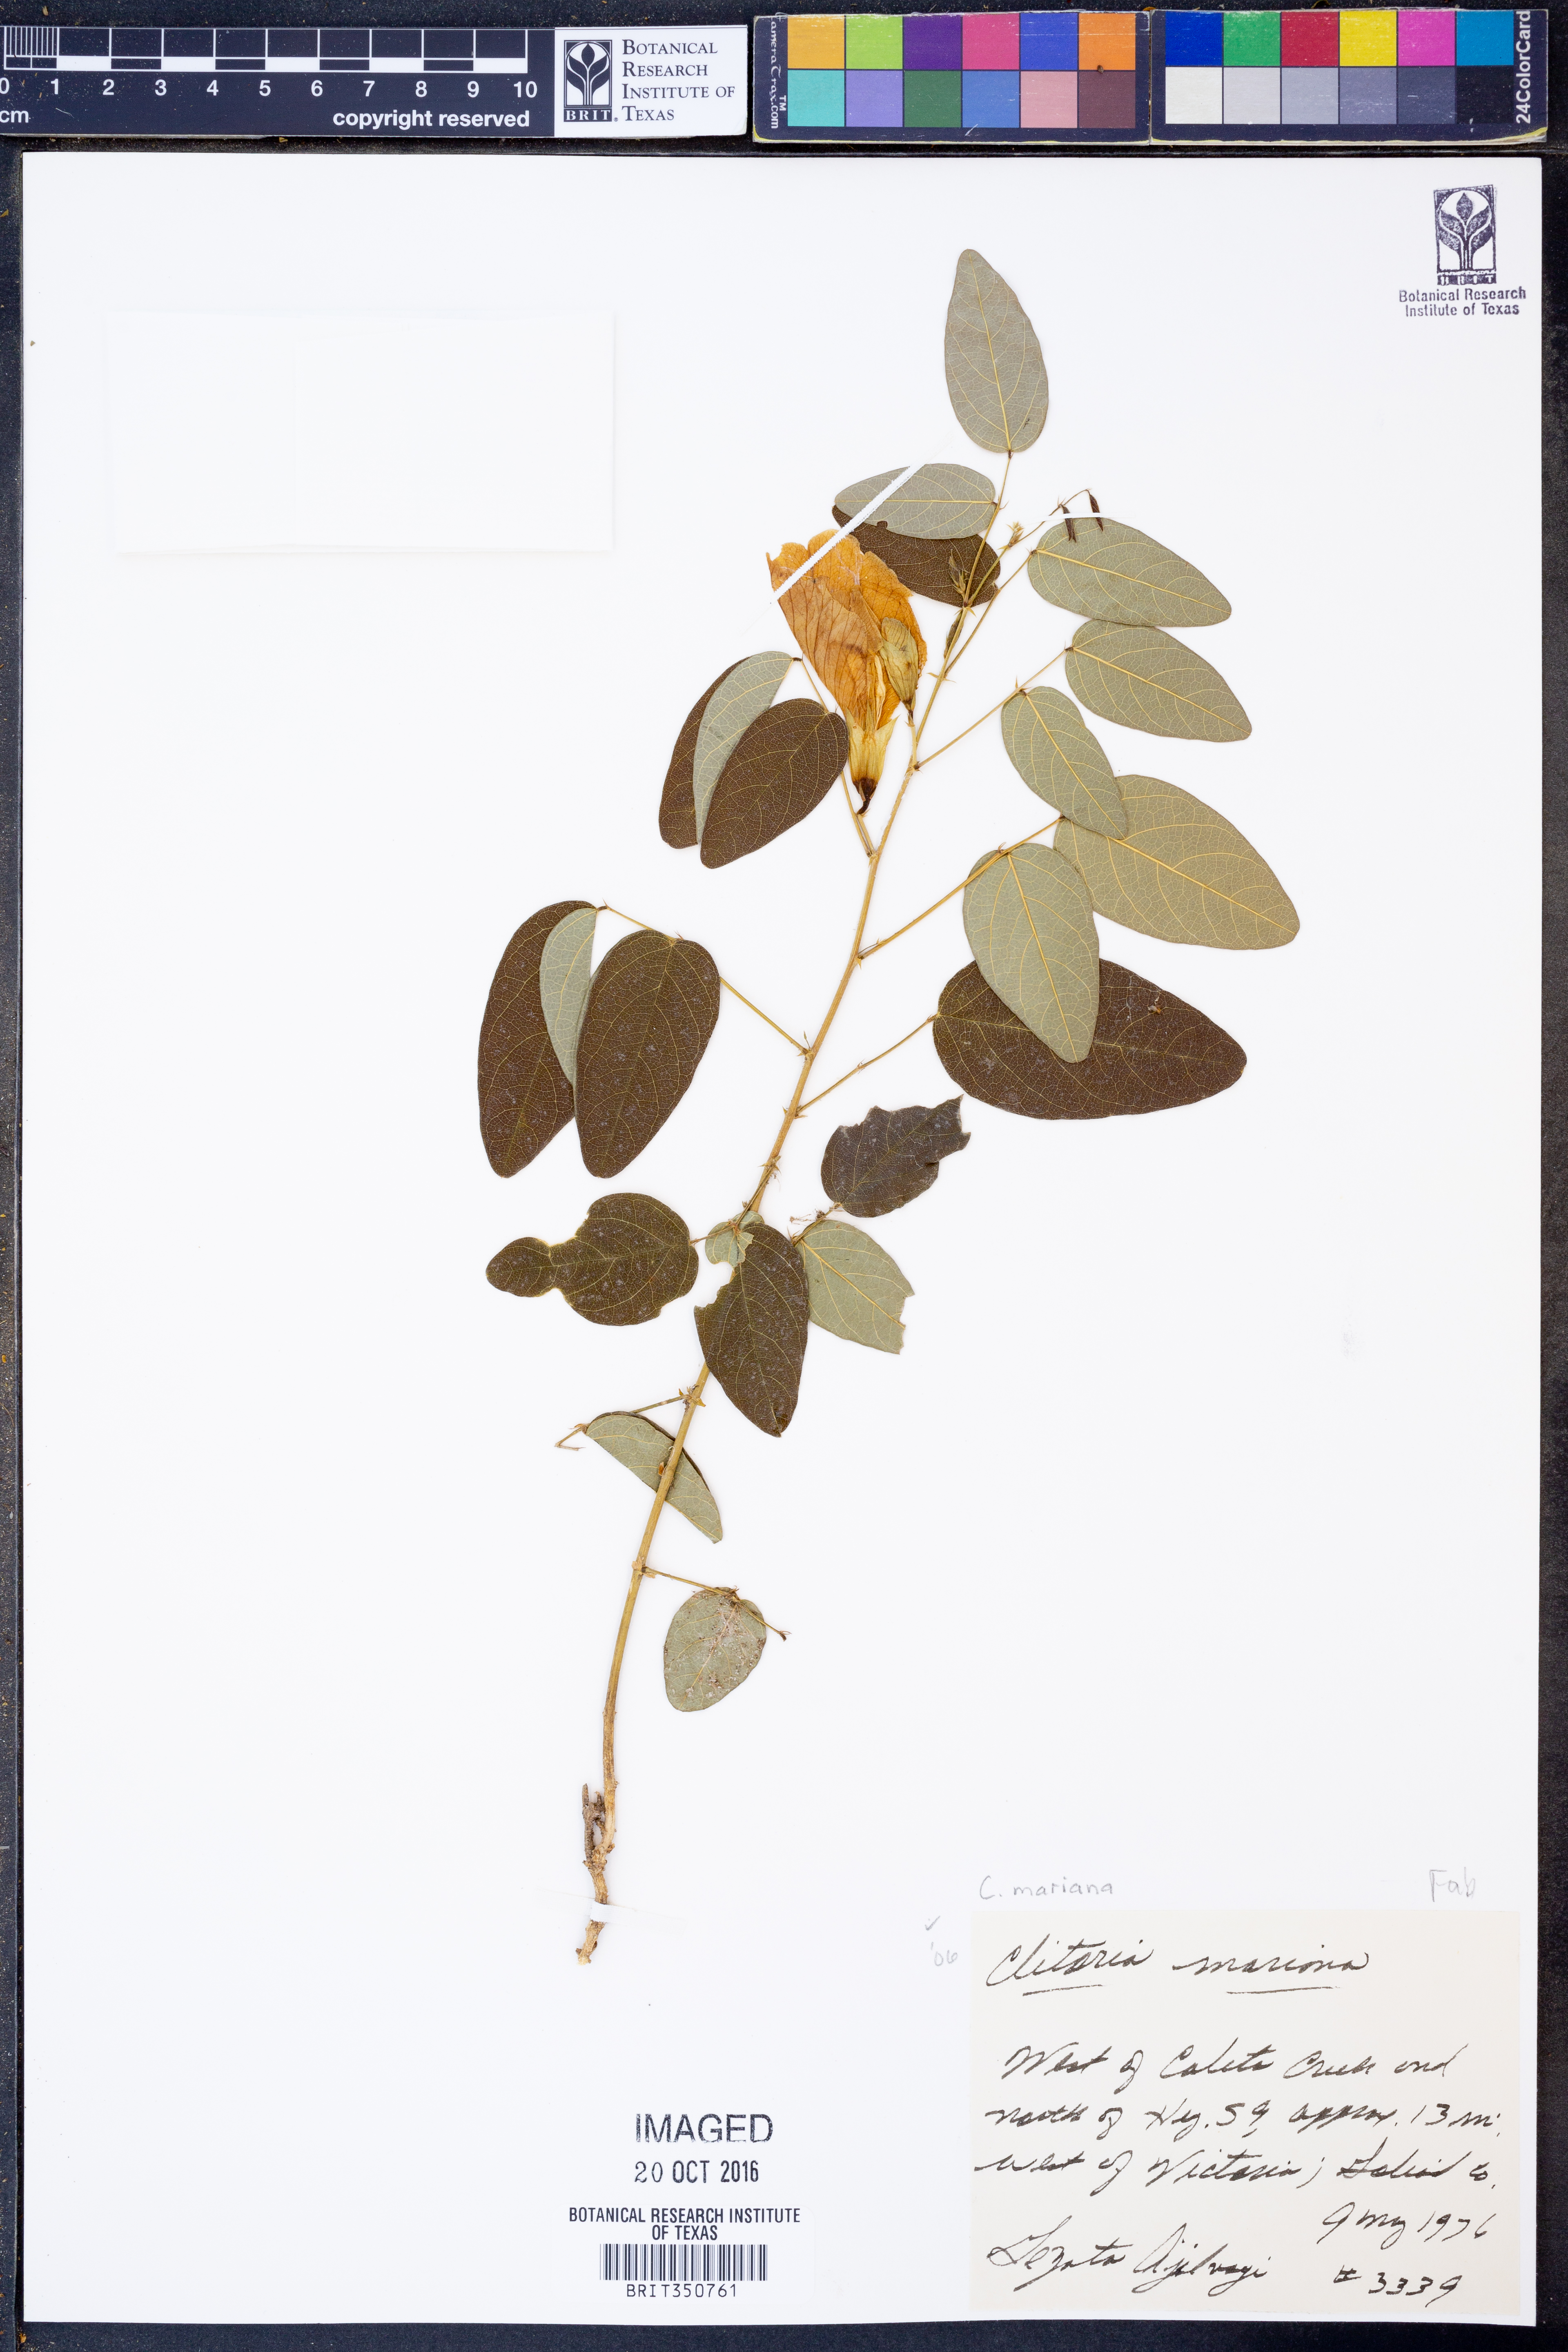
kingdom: Plantae
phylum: Tracheophyta
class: Magnoliopsida
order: Fabales
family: Fabaceae
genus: Clitoria
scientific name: Clitoria mariana
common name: Butterfly-pea
